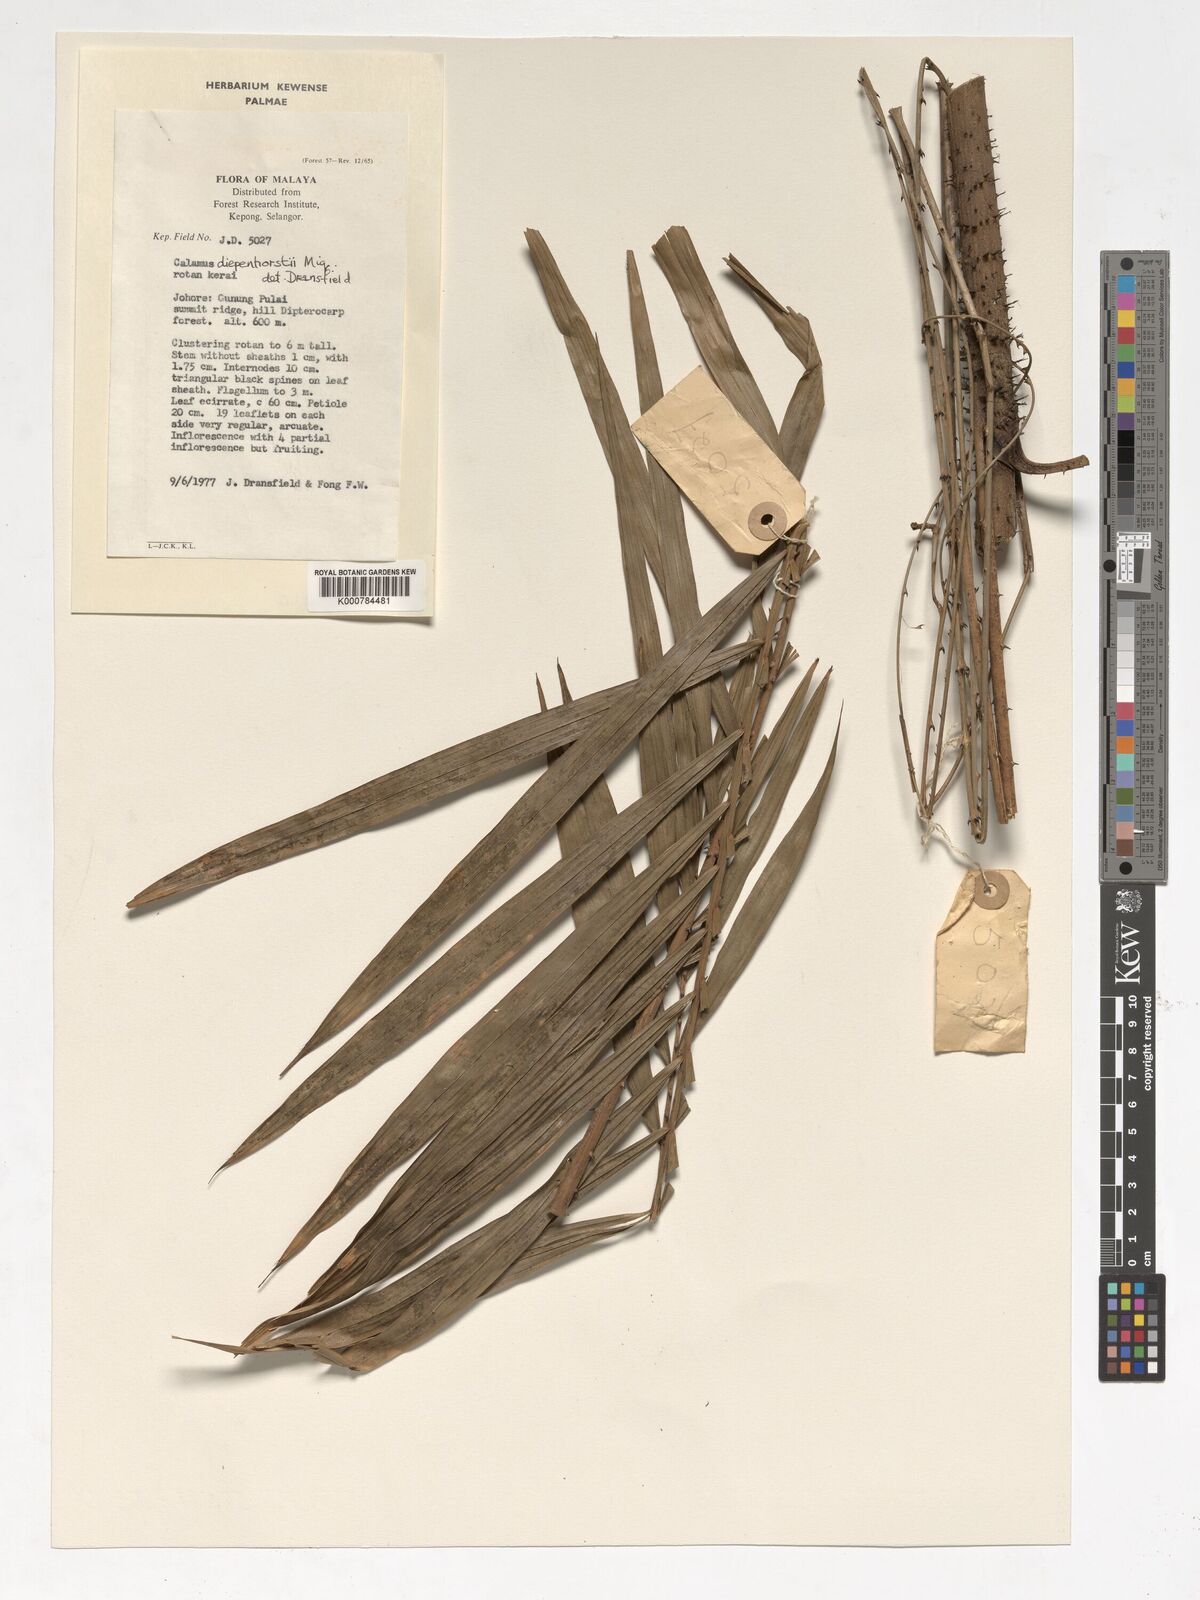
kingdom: Plantae
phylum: Tracheophyta
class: Liliopsida
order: Arecales
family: Arecaceae
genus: Calamus
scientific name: Calamus diepenhorstii
